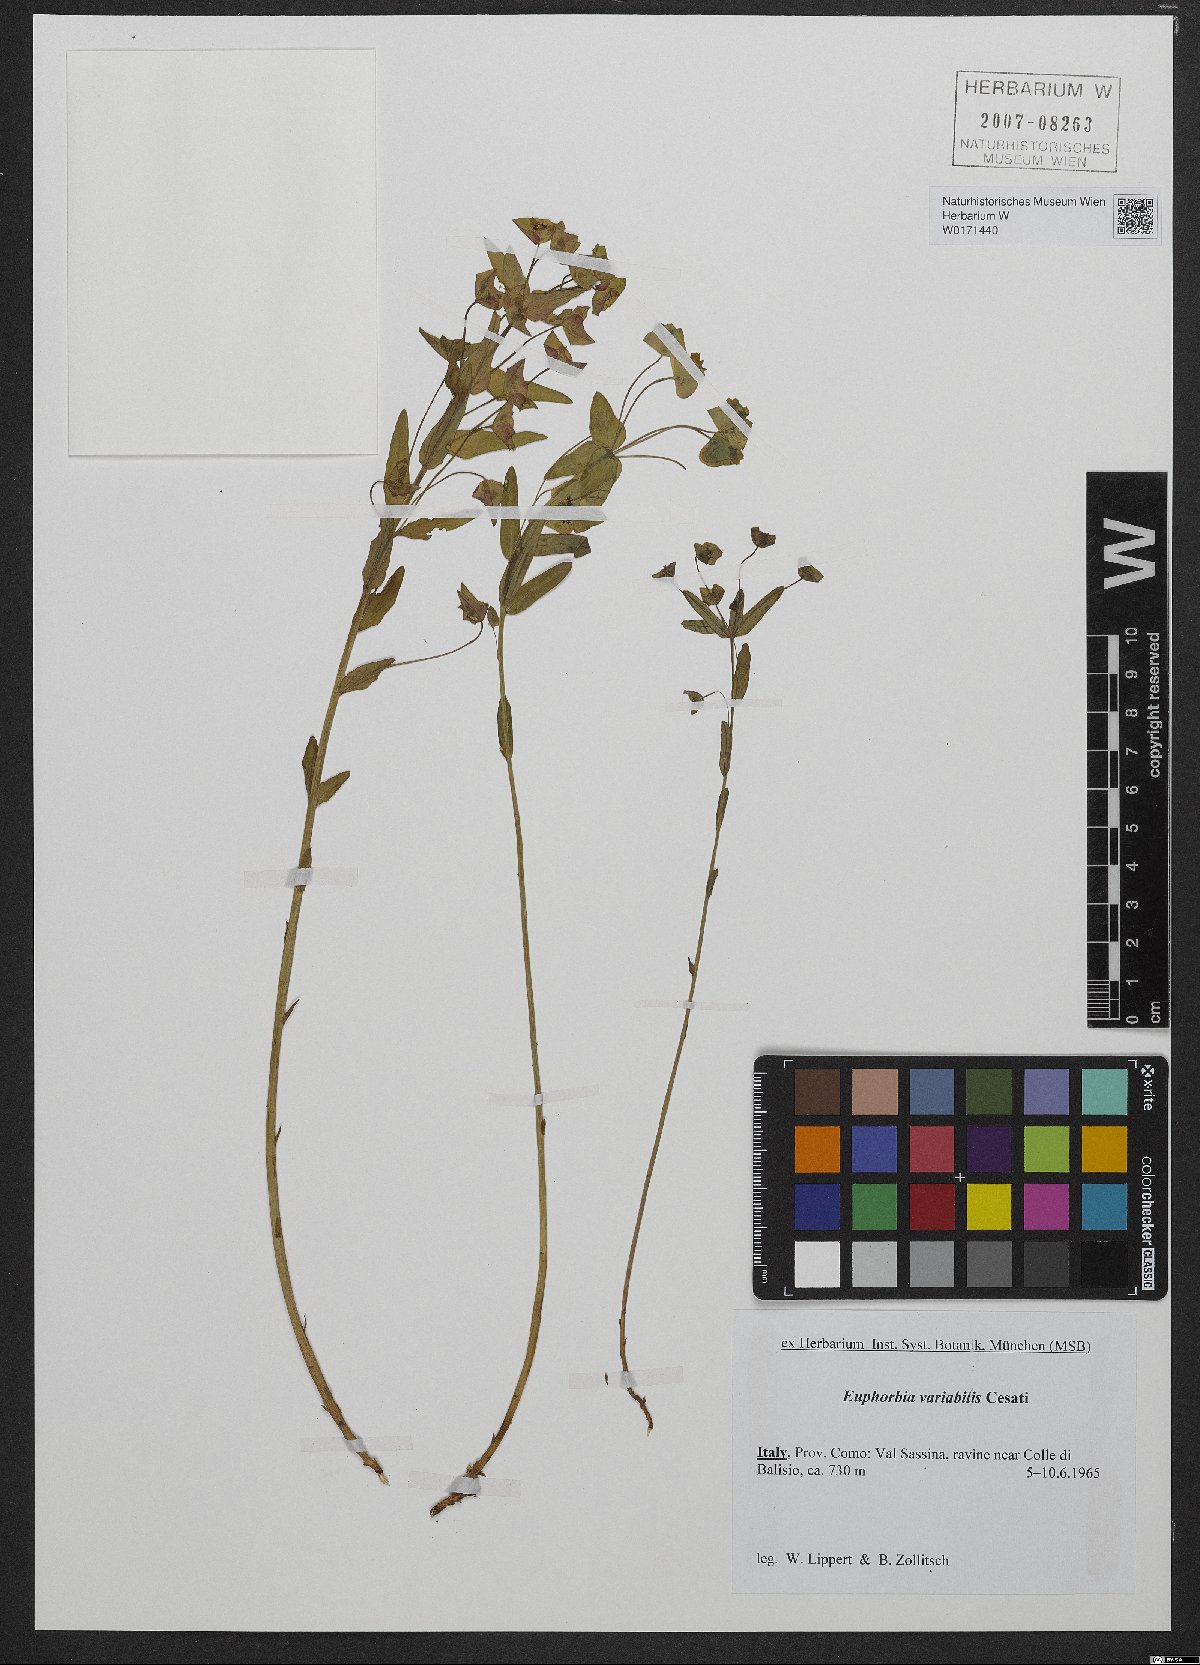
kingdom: Plantae
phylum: Tracheophyta
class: Magnoliopsida
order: Malpighiales
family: Euphorbiaceae
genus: Euphorbia
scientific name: Euphorbia variabilis
